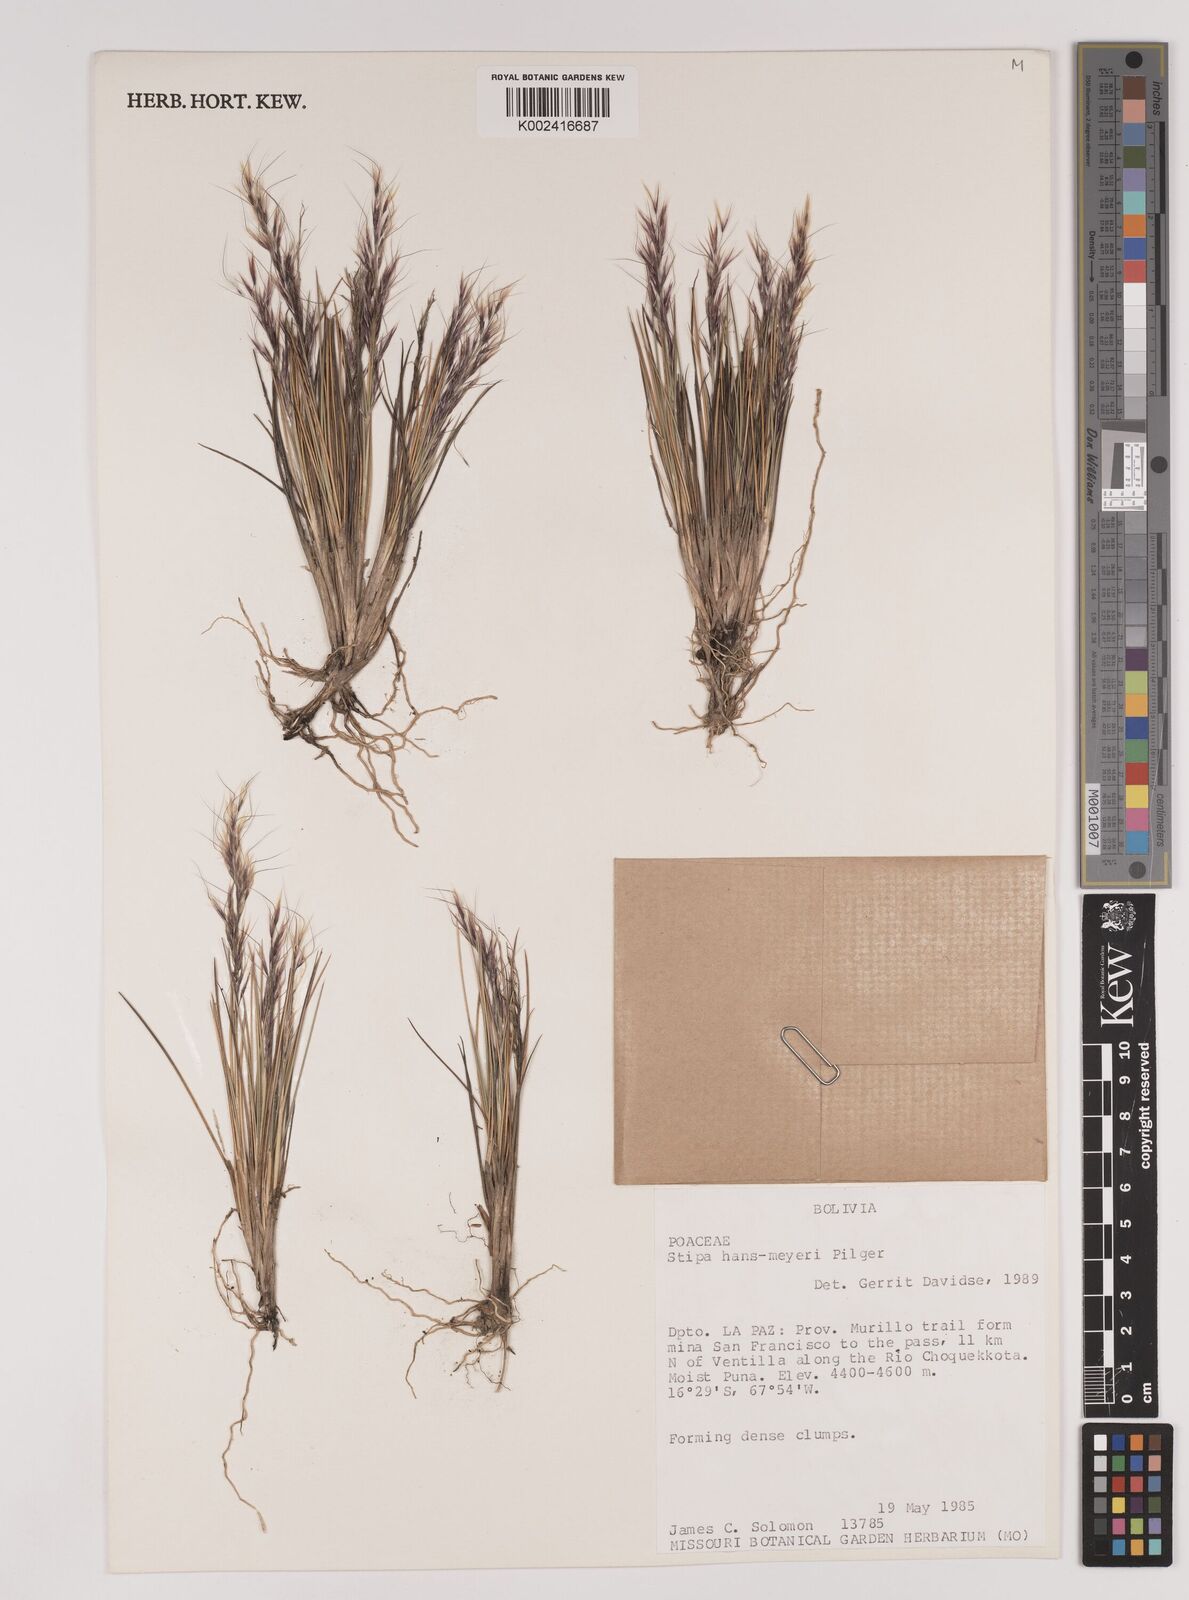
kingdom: Plantae
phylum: Tracheophyta
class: Liliopsida
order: Poales
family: Poaceae
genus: Stipa
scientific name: Stipa hans-meyeri
